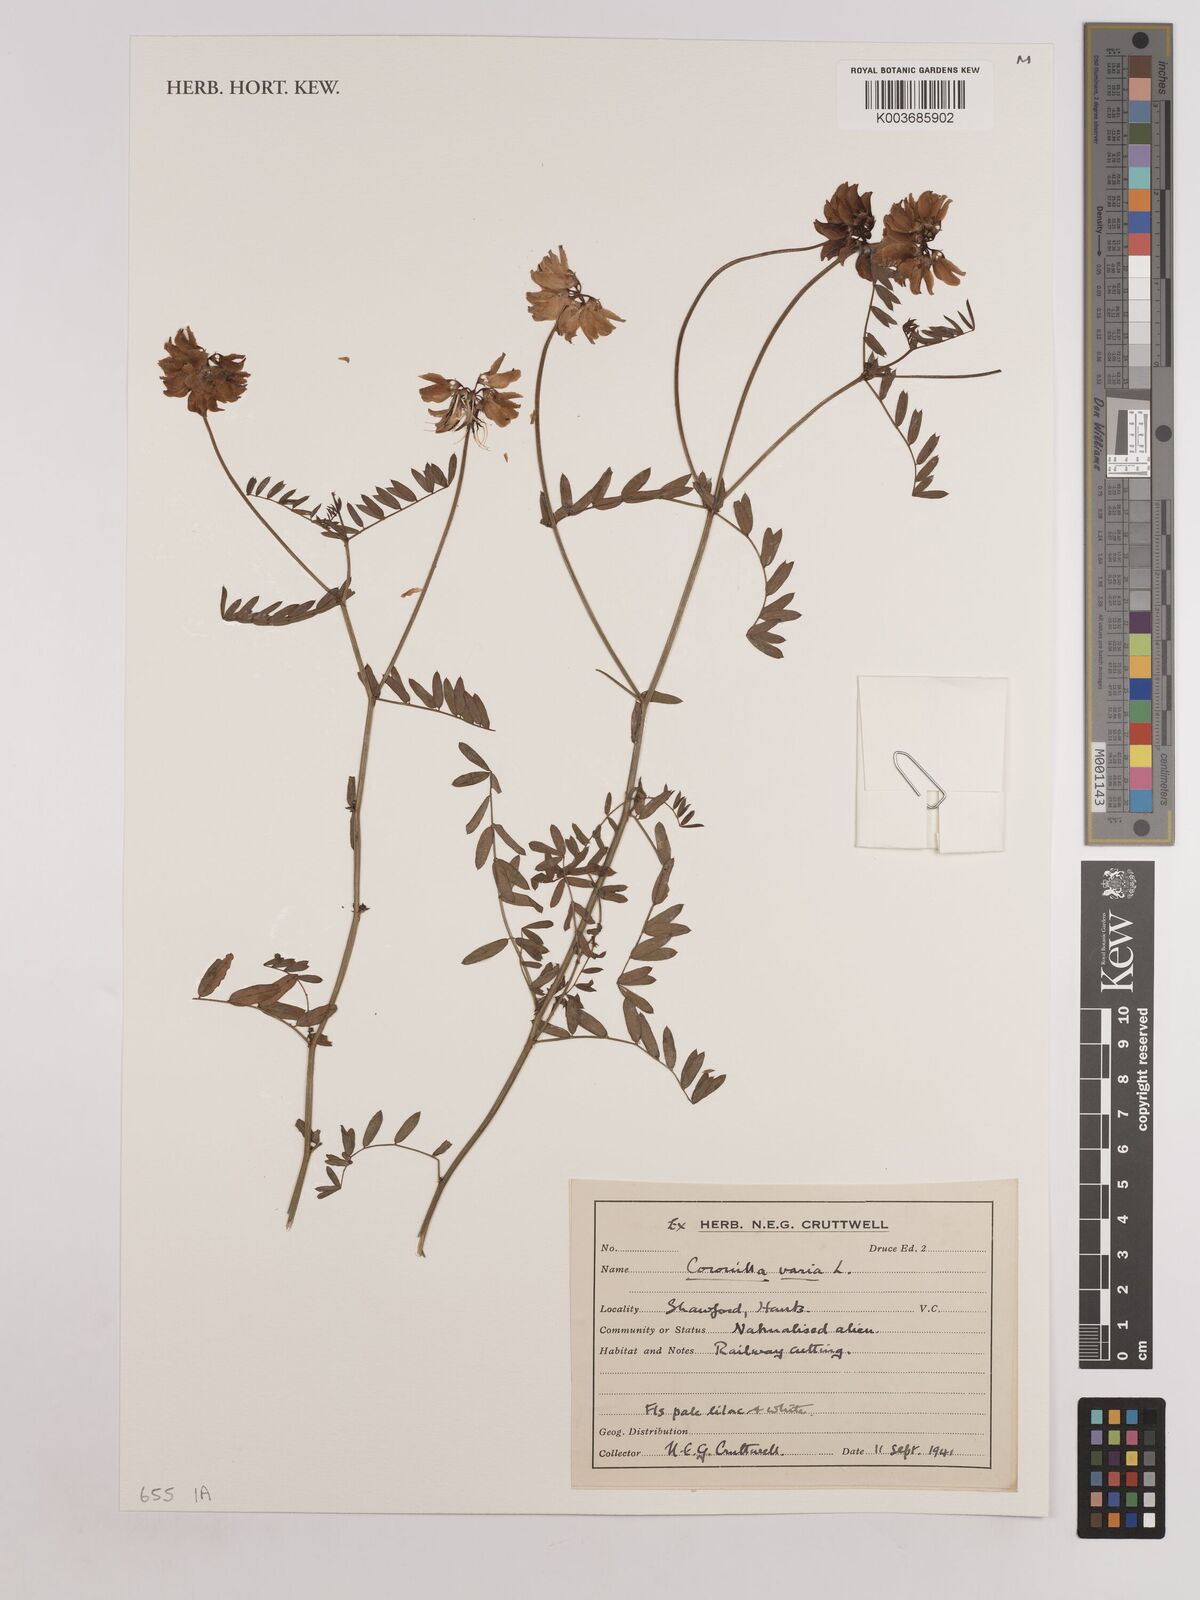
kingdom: Plantae
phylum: Tracheophyta
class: Magnoliopsida
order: Fabales
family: Fabaceae
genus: Coronilla
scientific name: Coronilla varia
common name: Crownvetch
